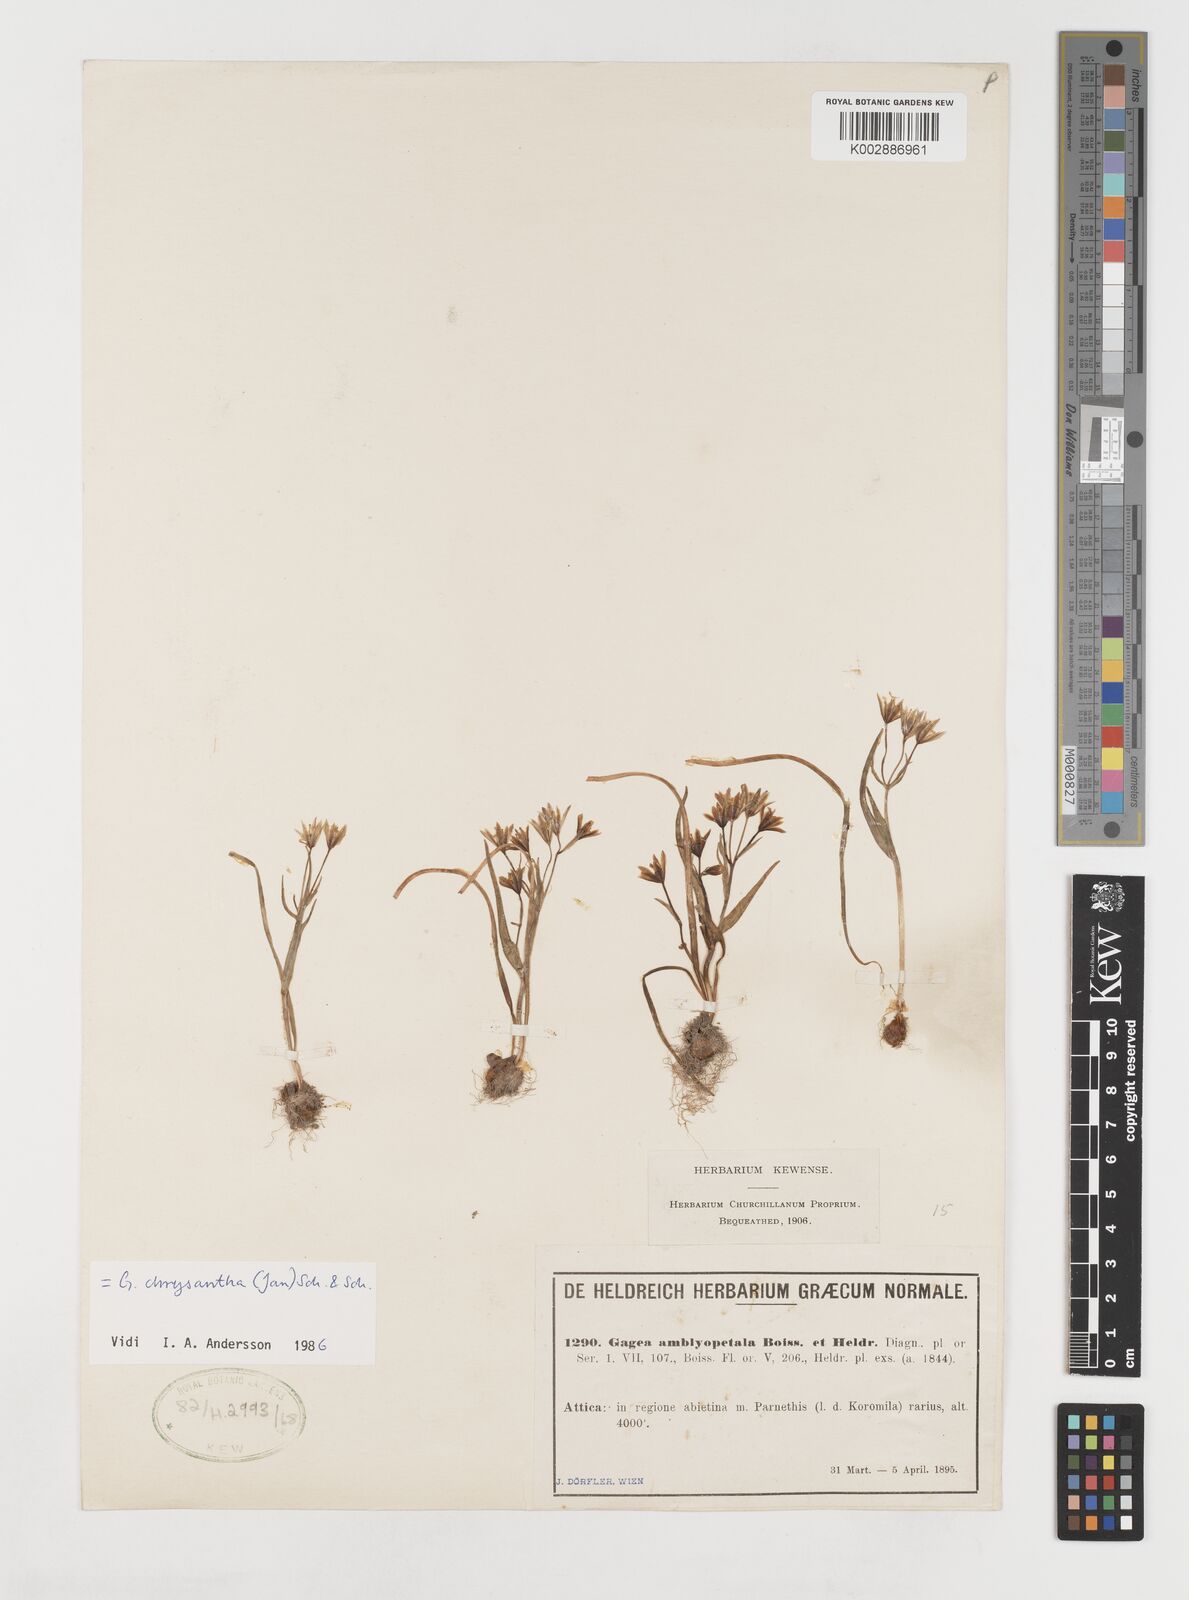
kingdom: Plantae
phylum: Tracheophyta
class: Liliopsida
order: Liliales
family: Liliaceae
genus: Gagea
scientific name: Gagea amblyopetala
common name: Blunt-flowered gagea
